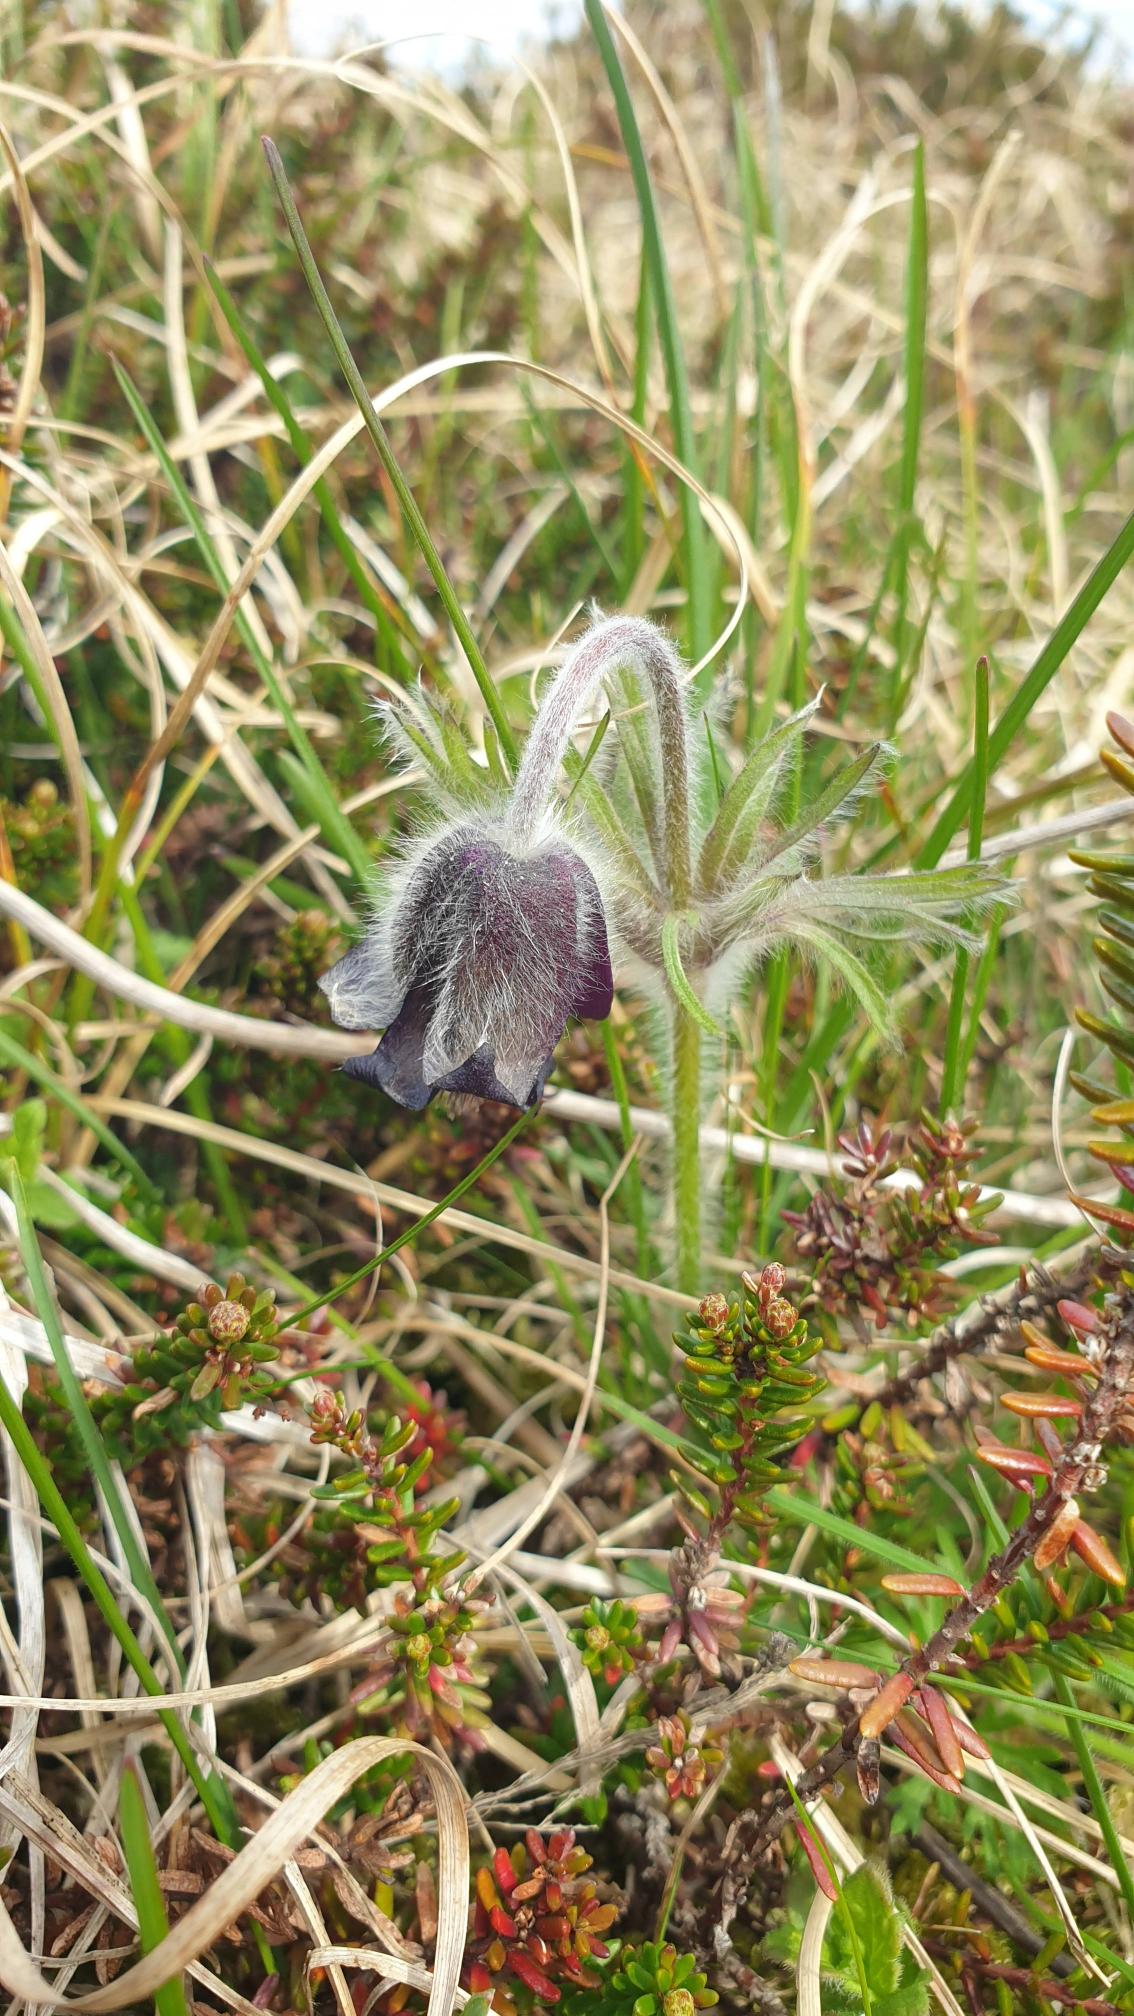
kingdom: Plantae
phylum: Tracheophyta
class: Magnoliopsida
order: Ranunculales
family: Ranunculaceae
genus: Pulsatilla
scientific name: Pulsatilla pratensis
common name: Nikkende kobjælde
